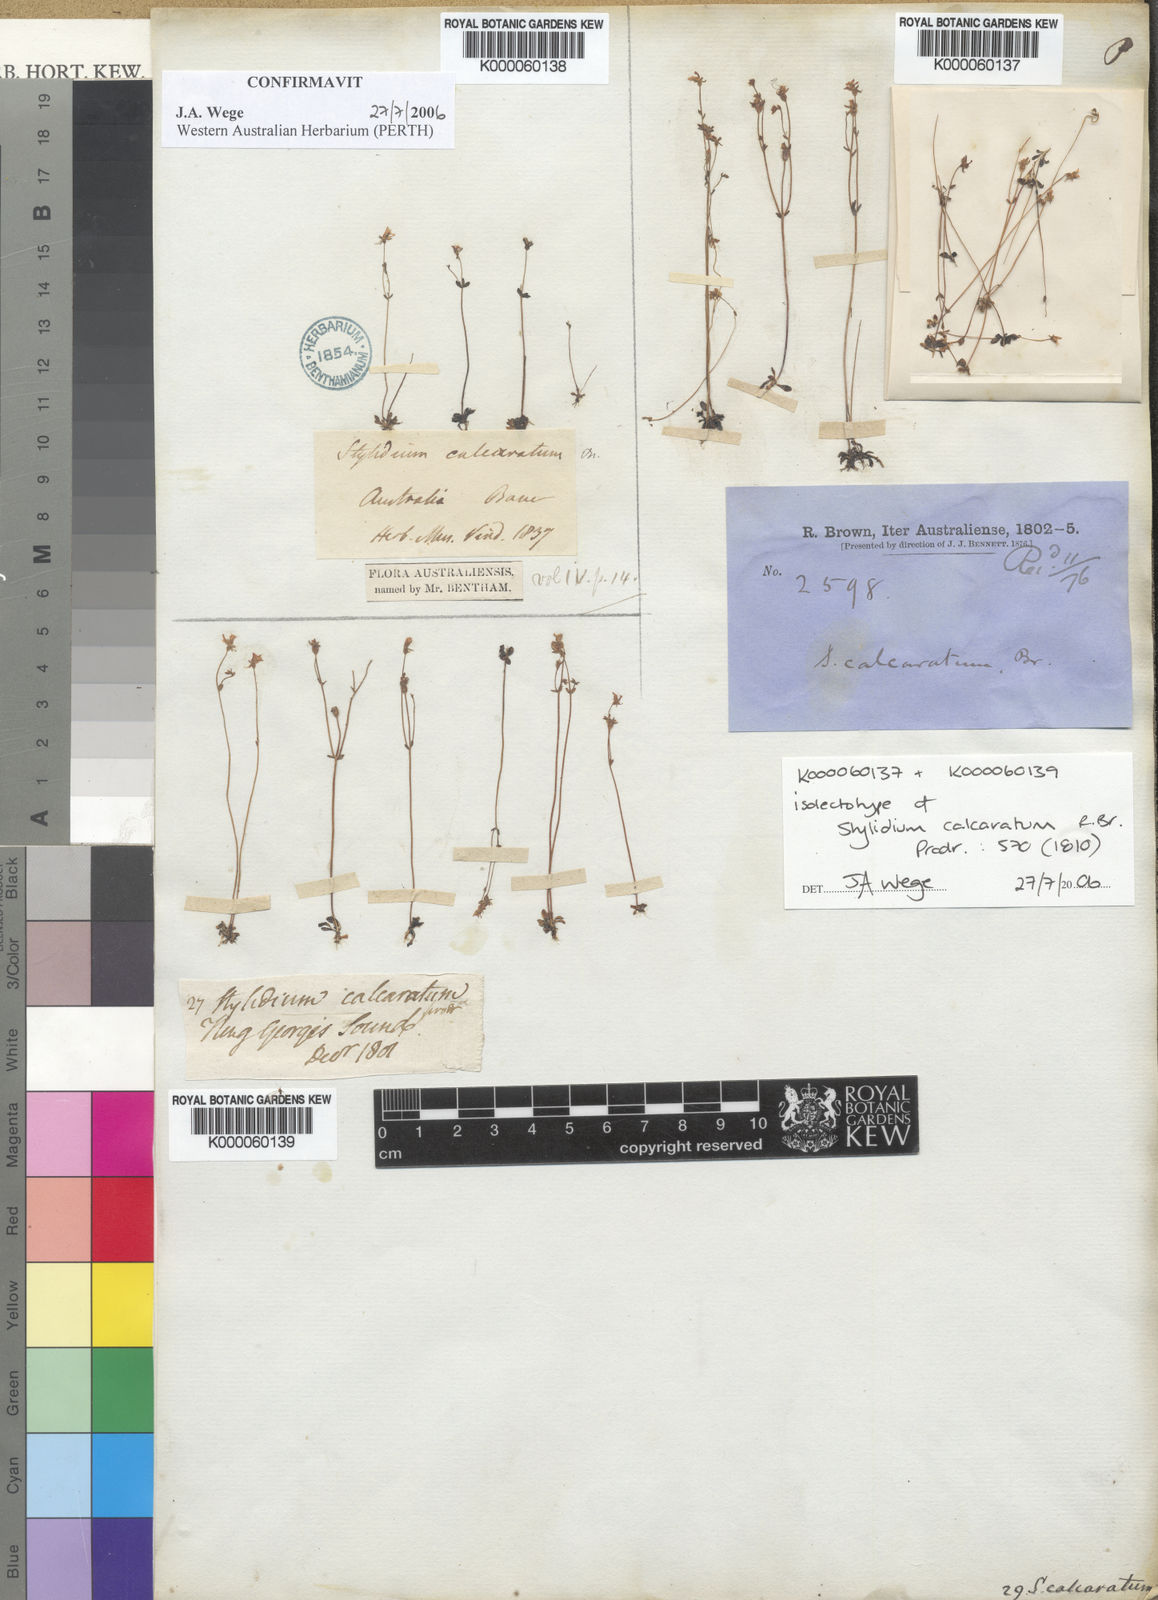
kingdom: Plantae
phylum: Tracheophyta
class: Magnoliopsida
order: Asterales
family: Stylidiaceae
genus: Stylidium
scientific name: Stylidium calcaratum
